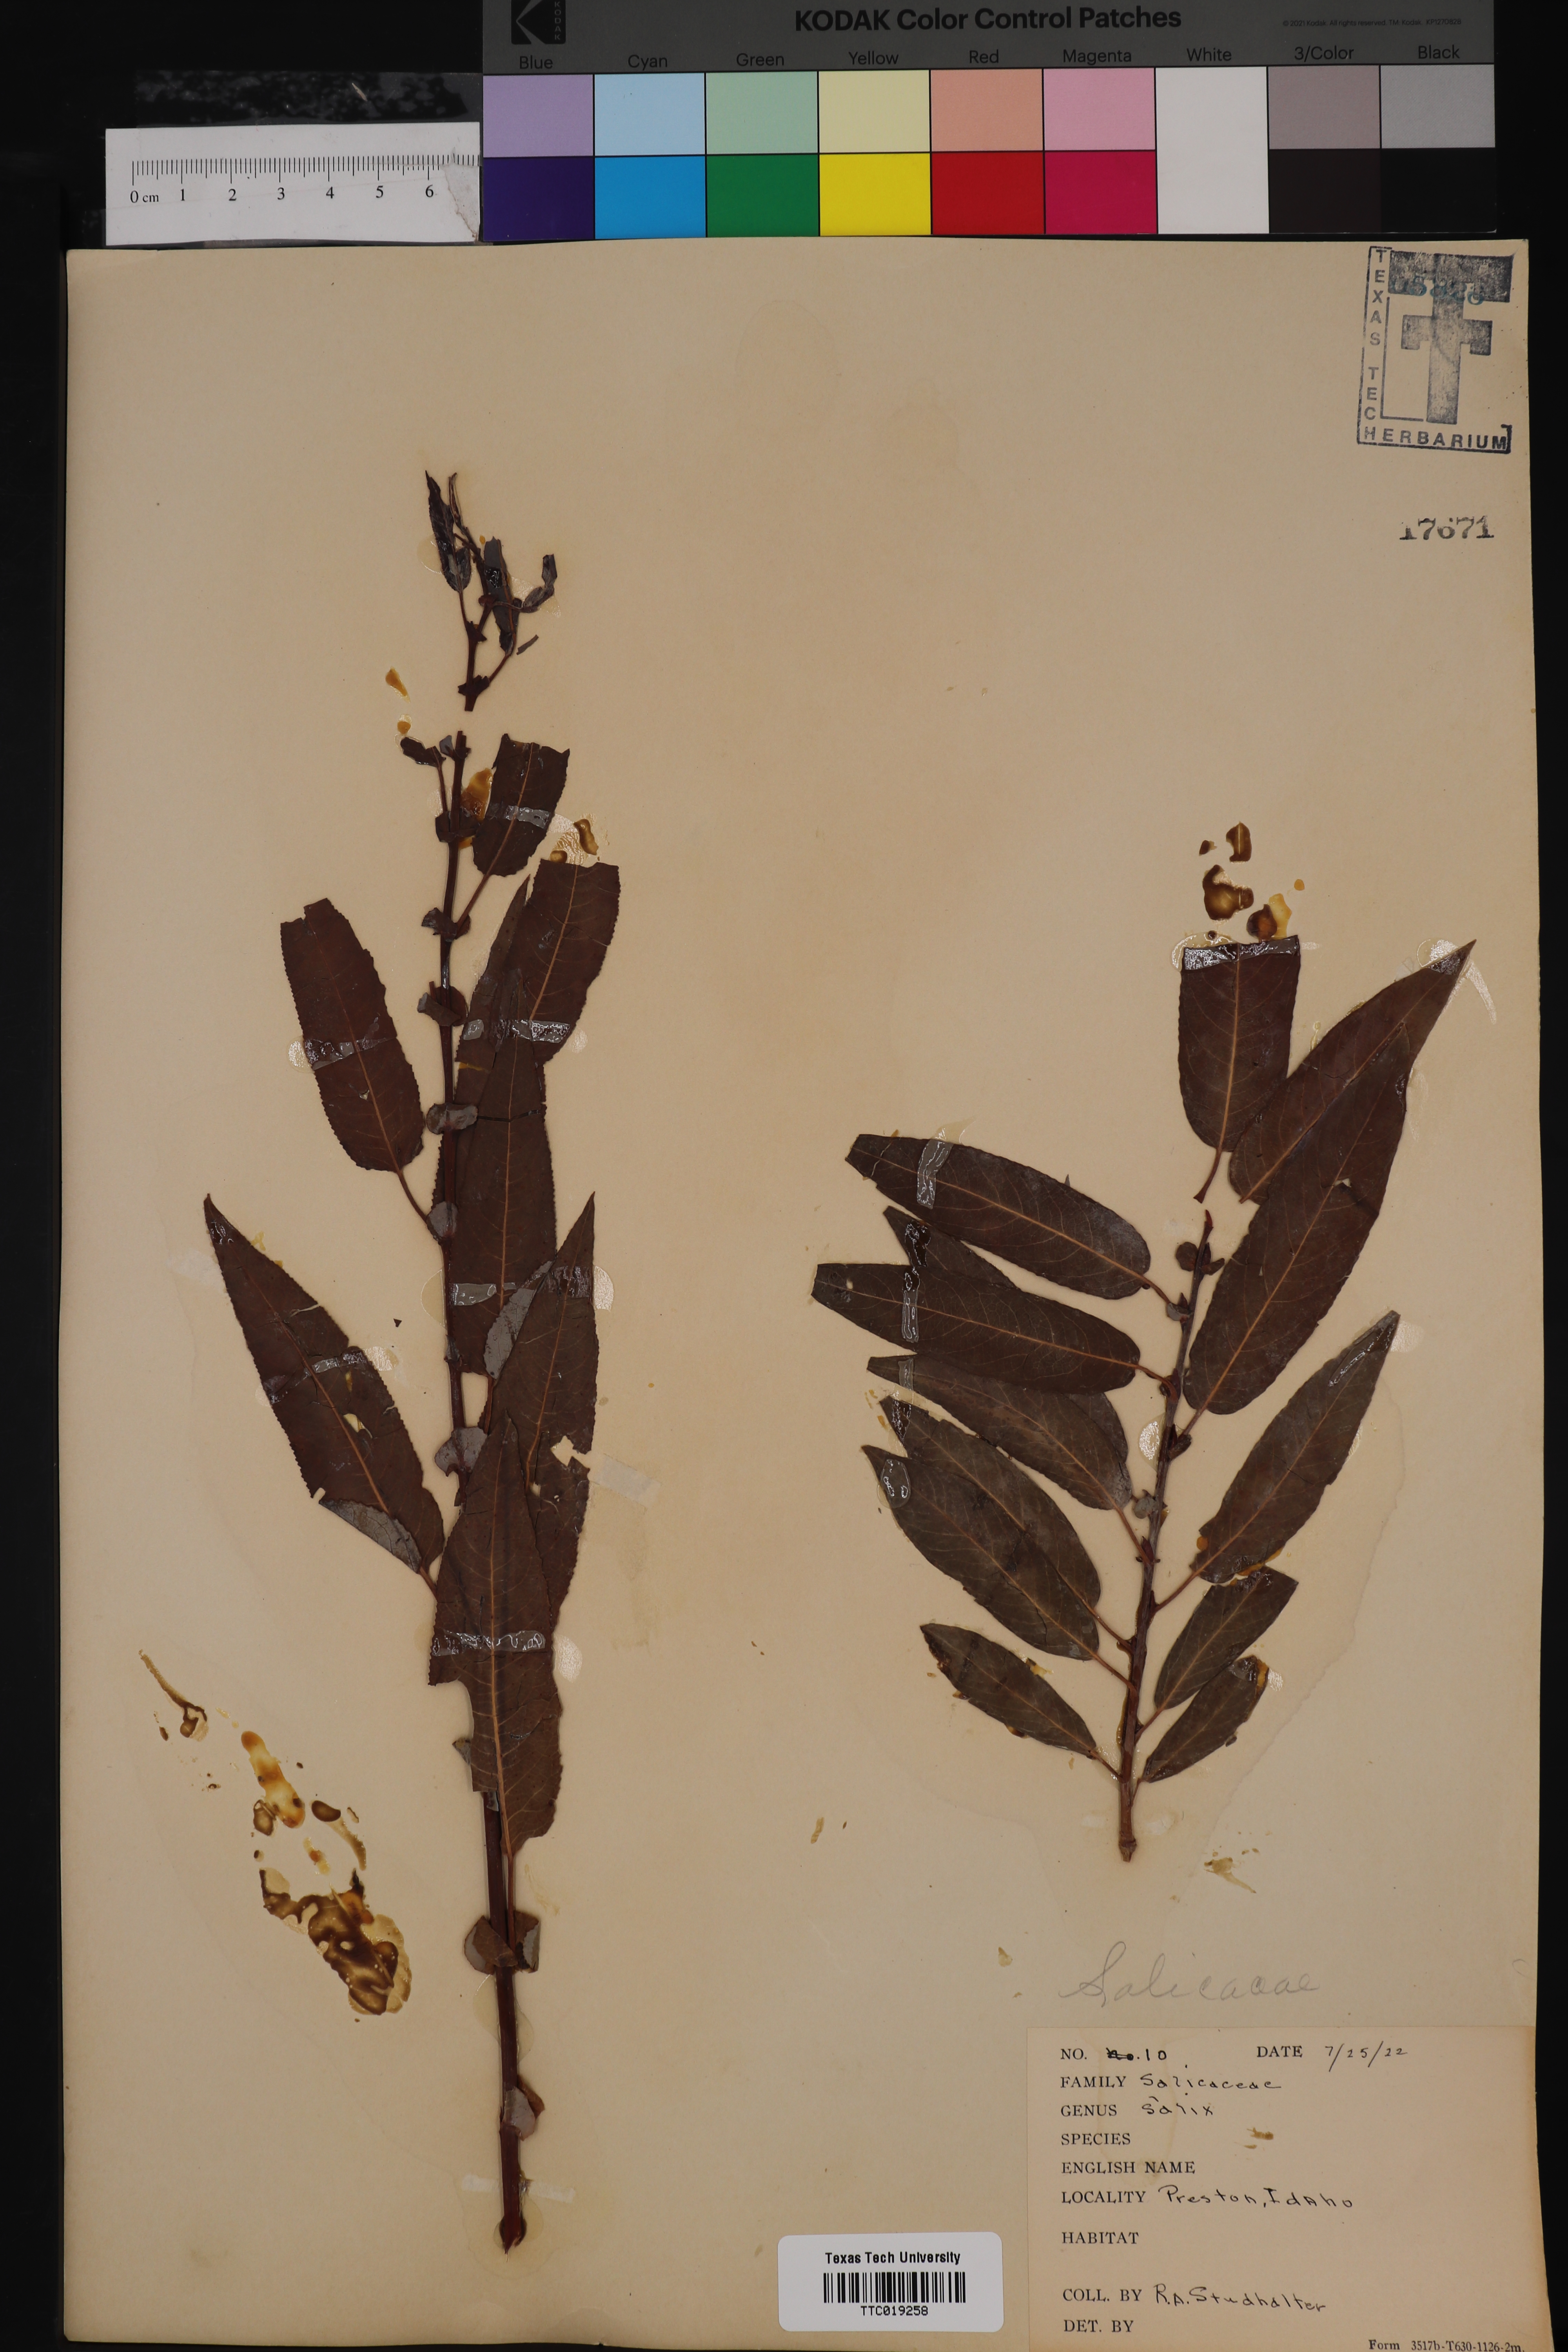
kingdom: Plantae
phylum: Tracheophyta
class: Magnoliopsida
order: Malpighiales
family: Salicaceae
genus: Salix
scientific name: Salix
